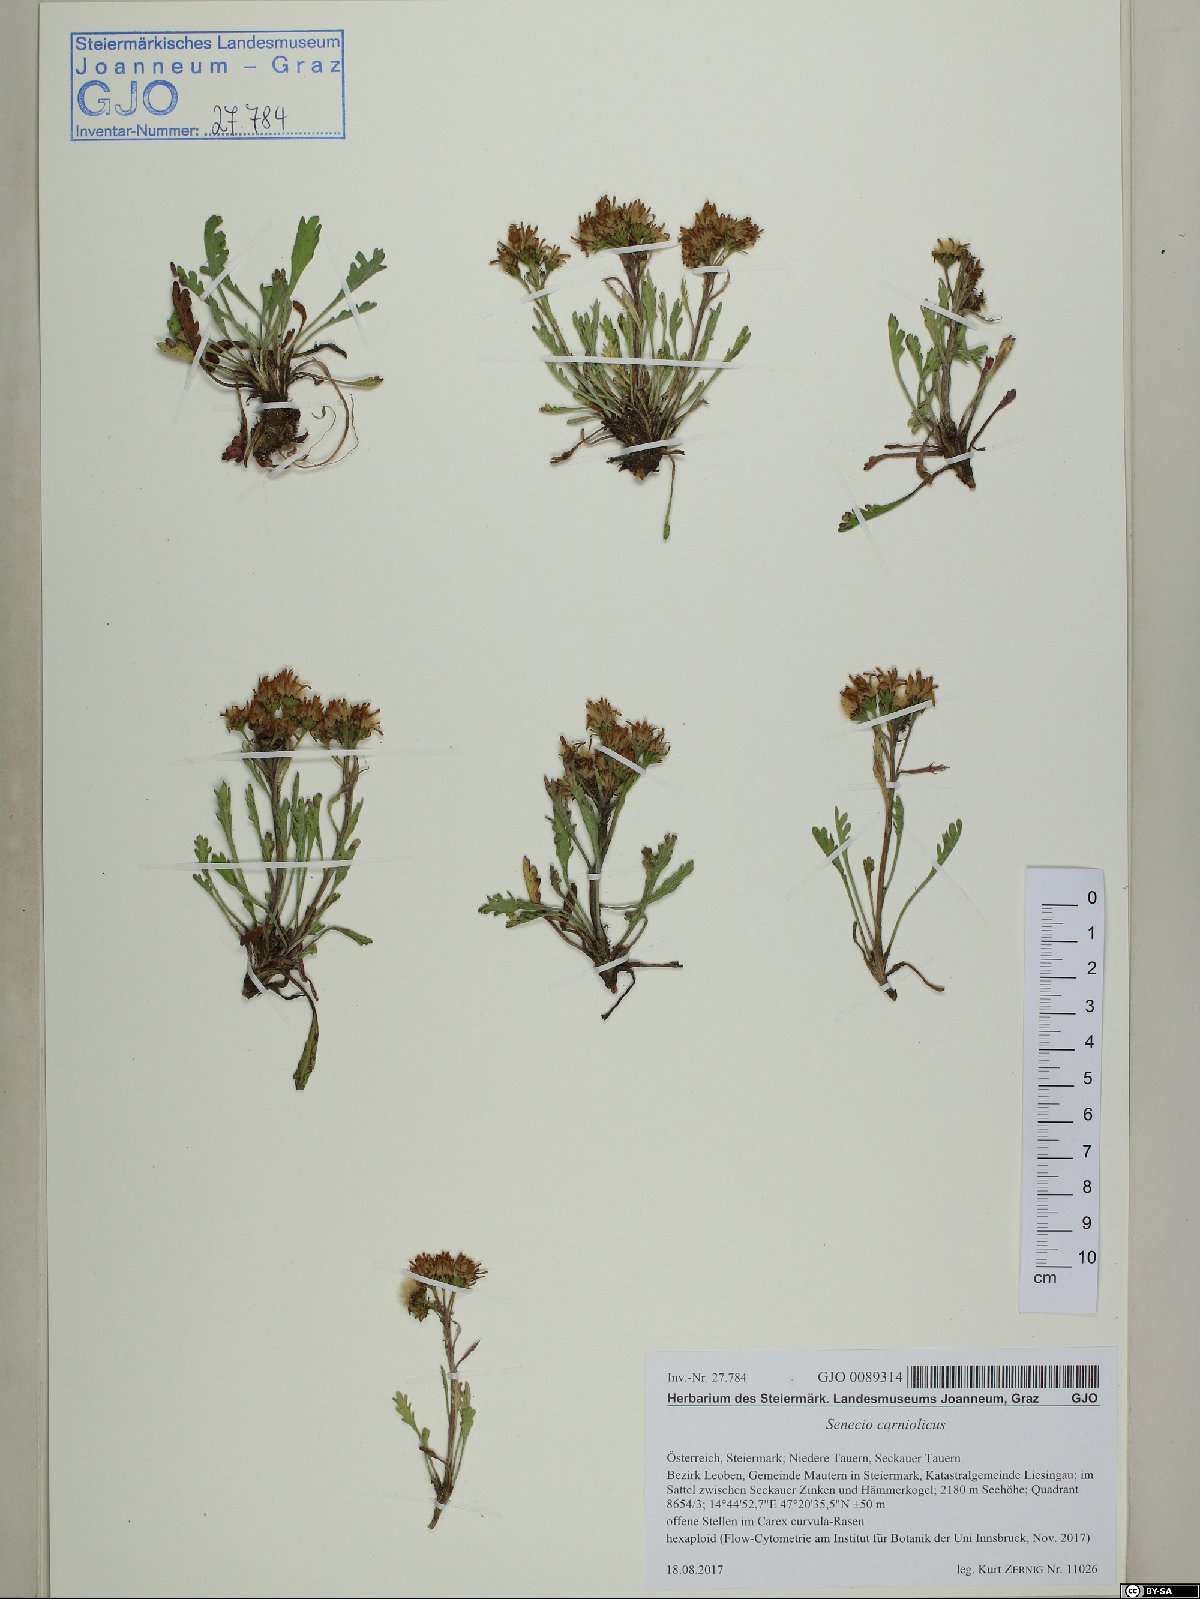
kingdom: Plantae
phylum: Tracheophyta
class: Magnoliopsida
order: Asterales
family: Asteraceae
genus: Jacobaea
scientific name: Jacobaea carniolica
